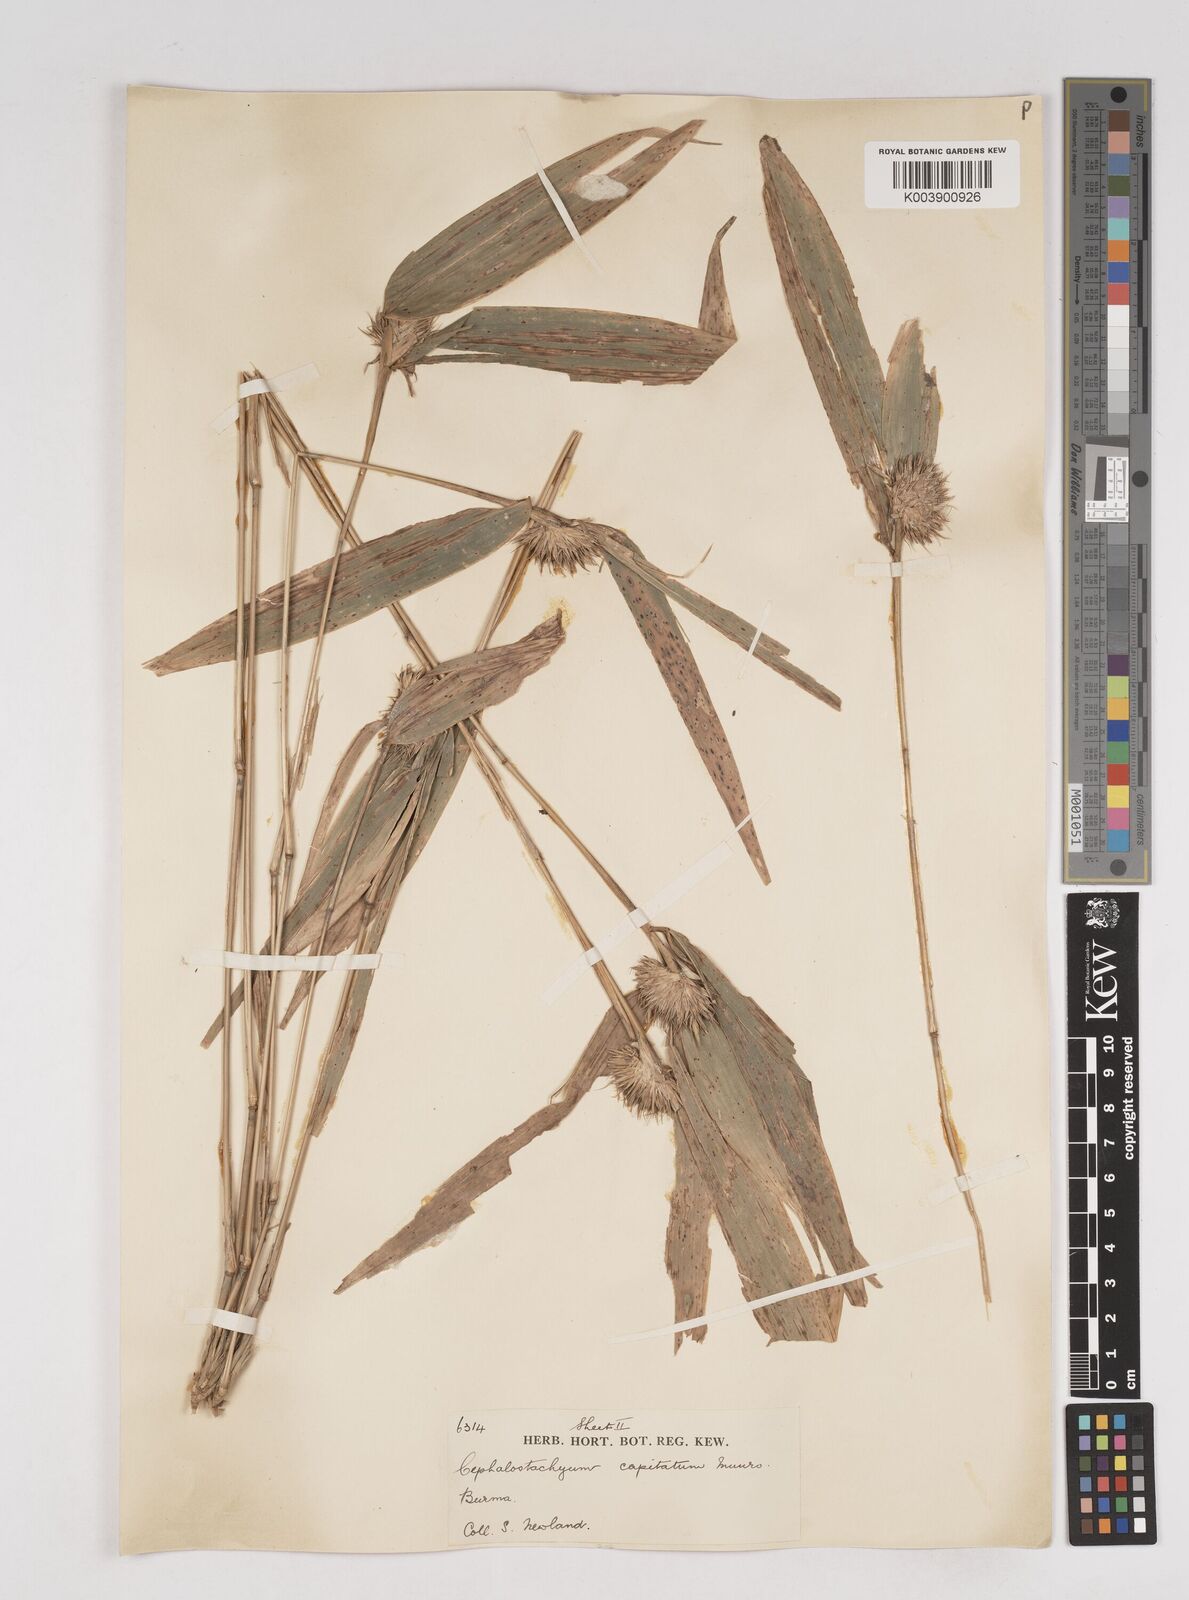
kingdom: Plantae
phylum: Tracheophyta
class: Liliopsida
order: Poales
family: Poaceae
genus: Cephalostachyum
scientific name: Cephalostachyum capitatum
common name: Hollow bamboo
